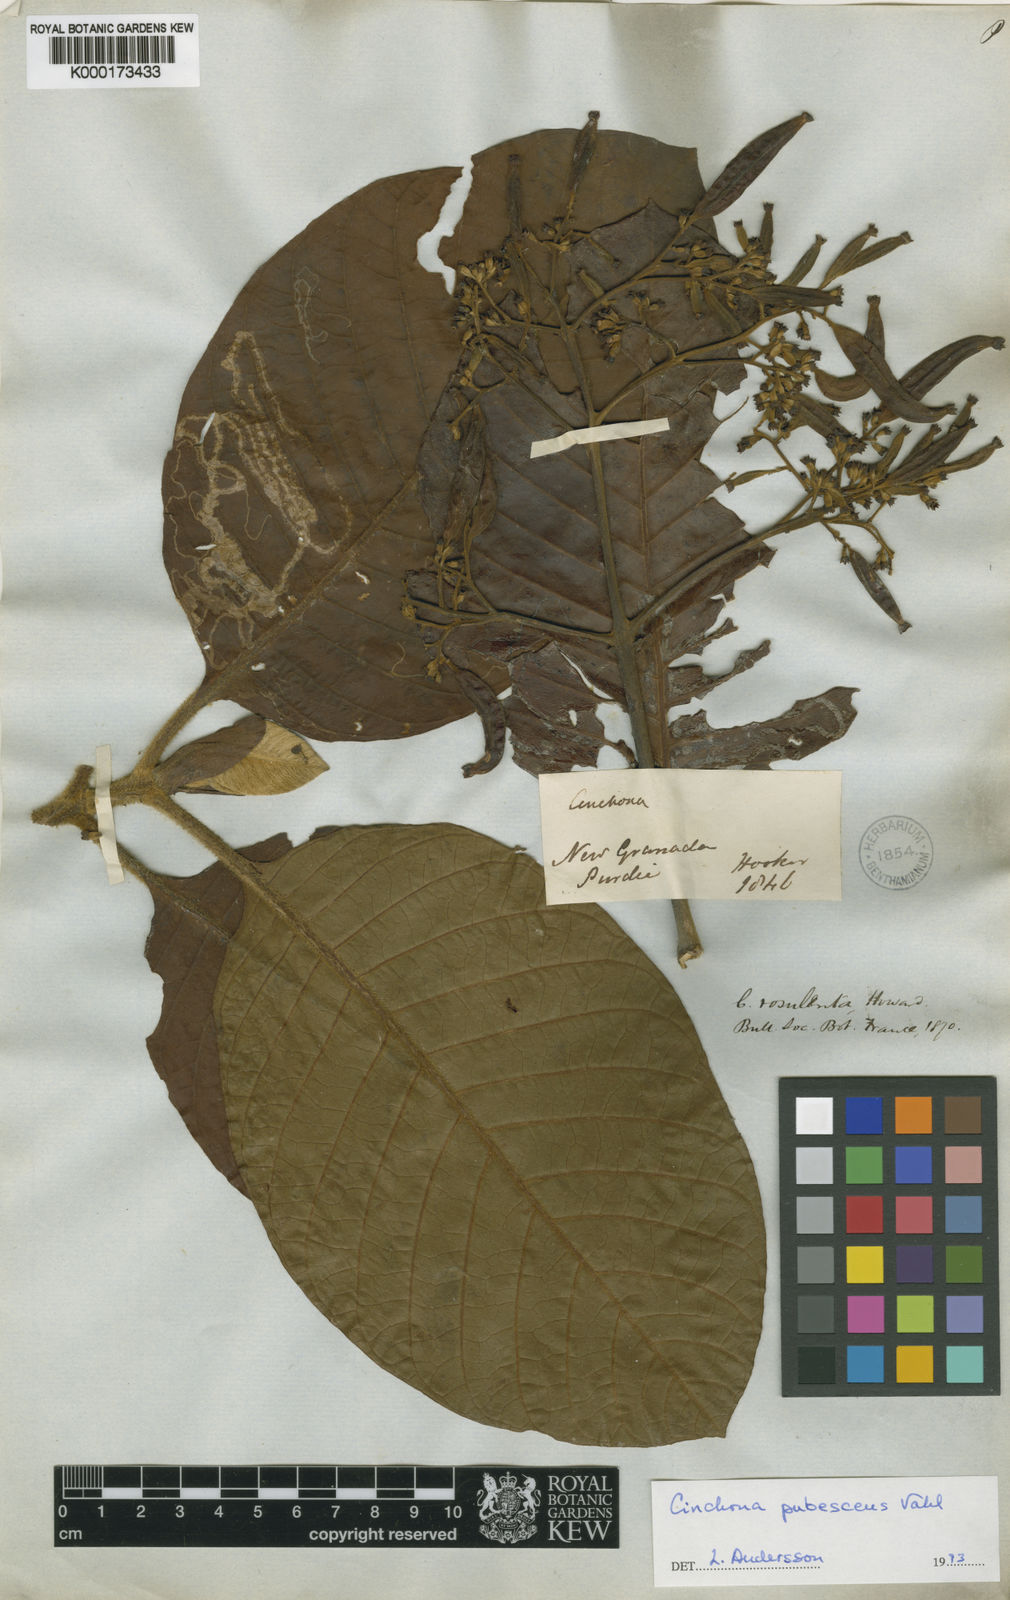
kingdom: Plantae
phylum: Tracheophyta
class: Magnoliopsida
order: Gentianales
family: Rubiaceae
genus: Cinchona
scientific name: Cinchona pubescens
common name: Quinine
